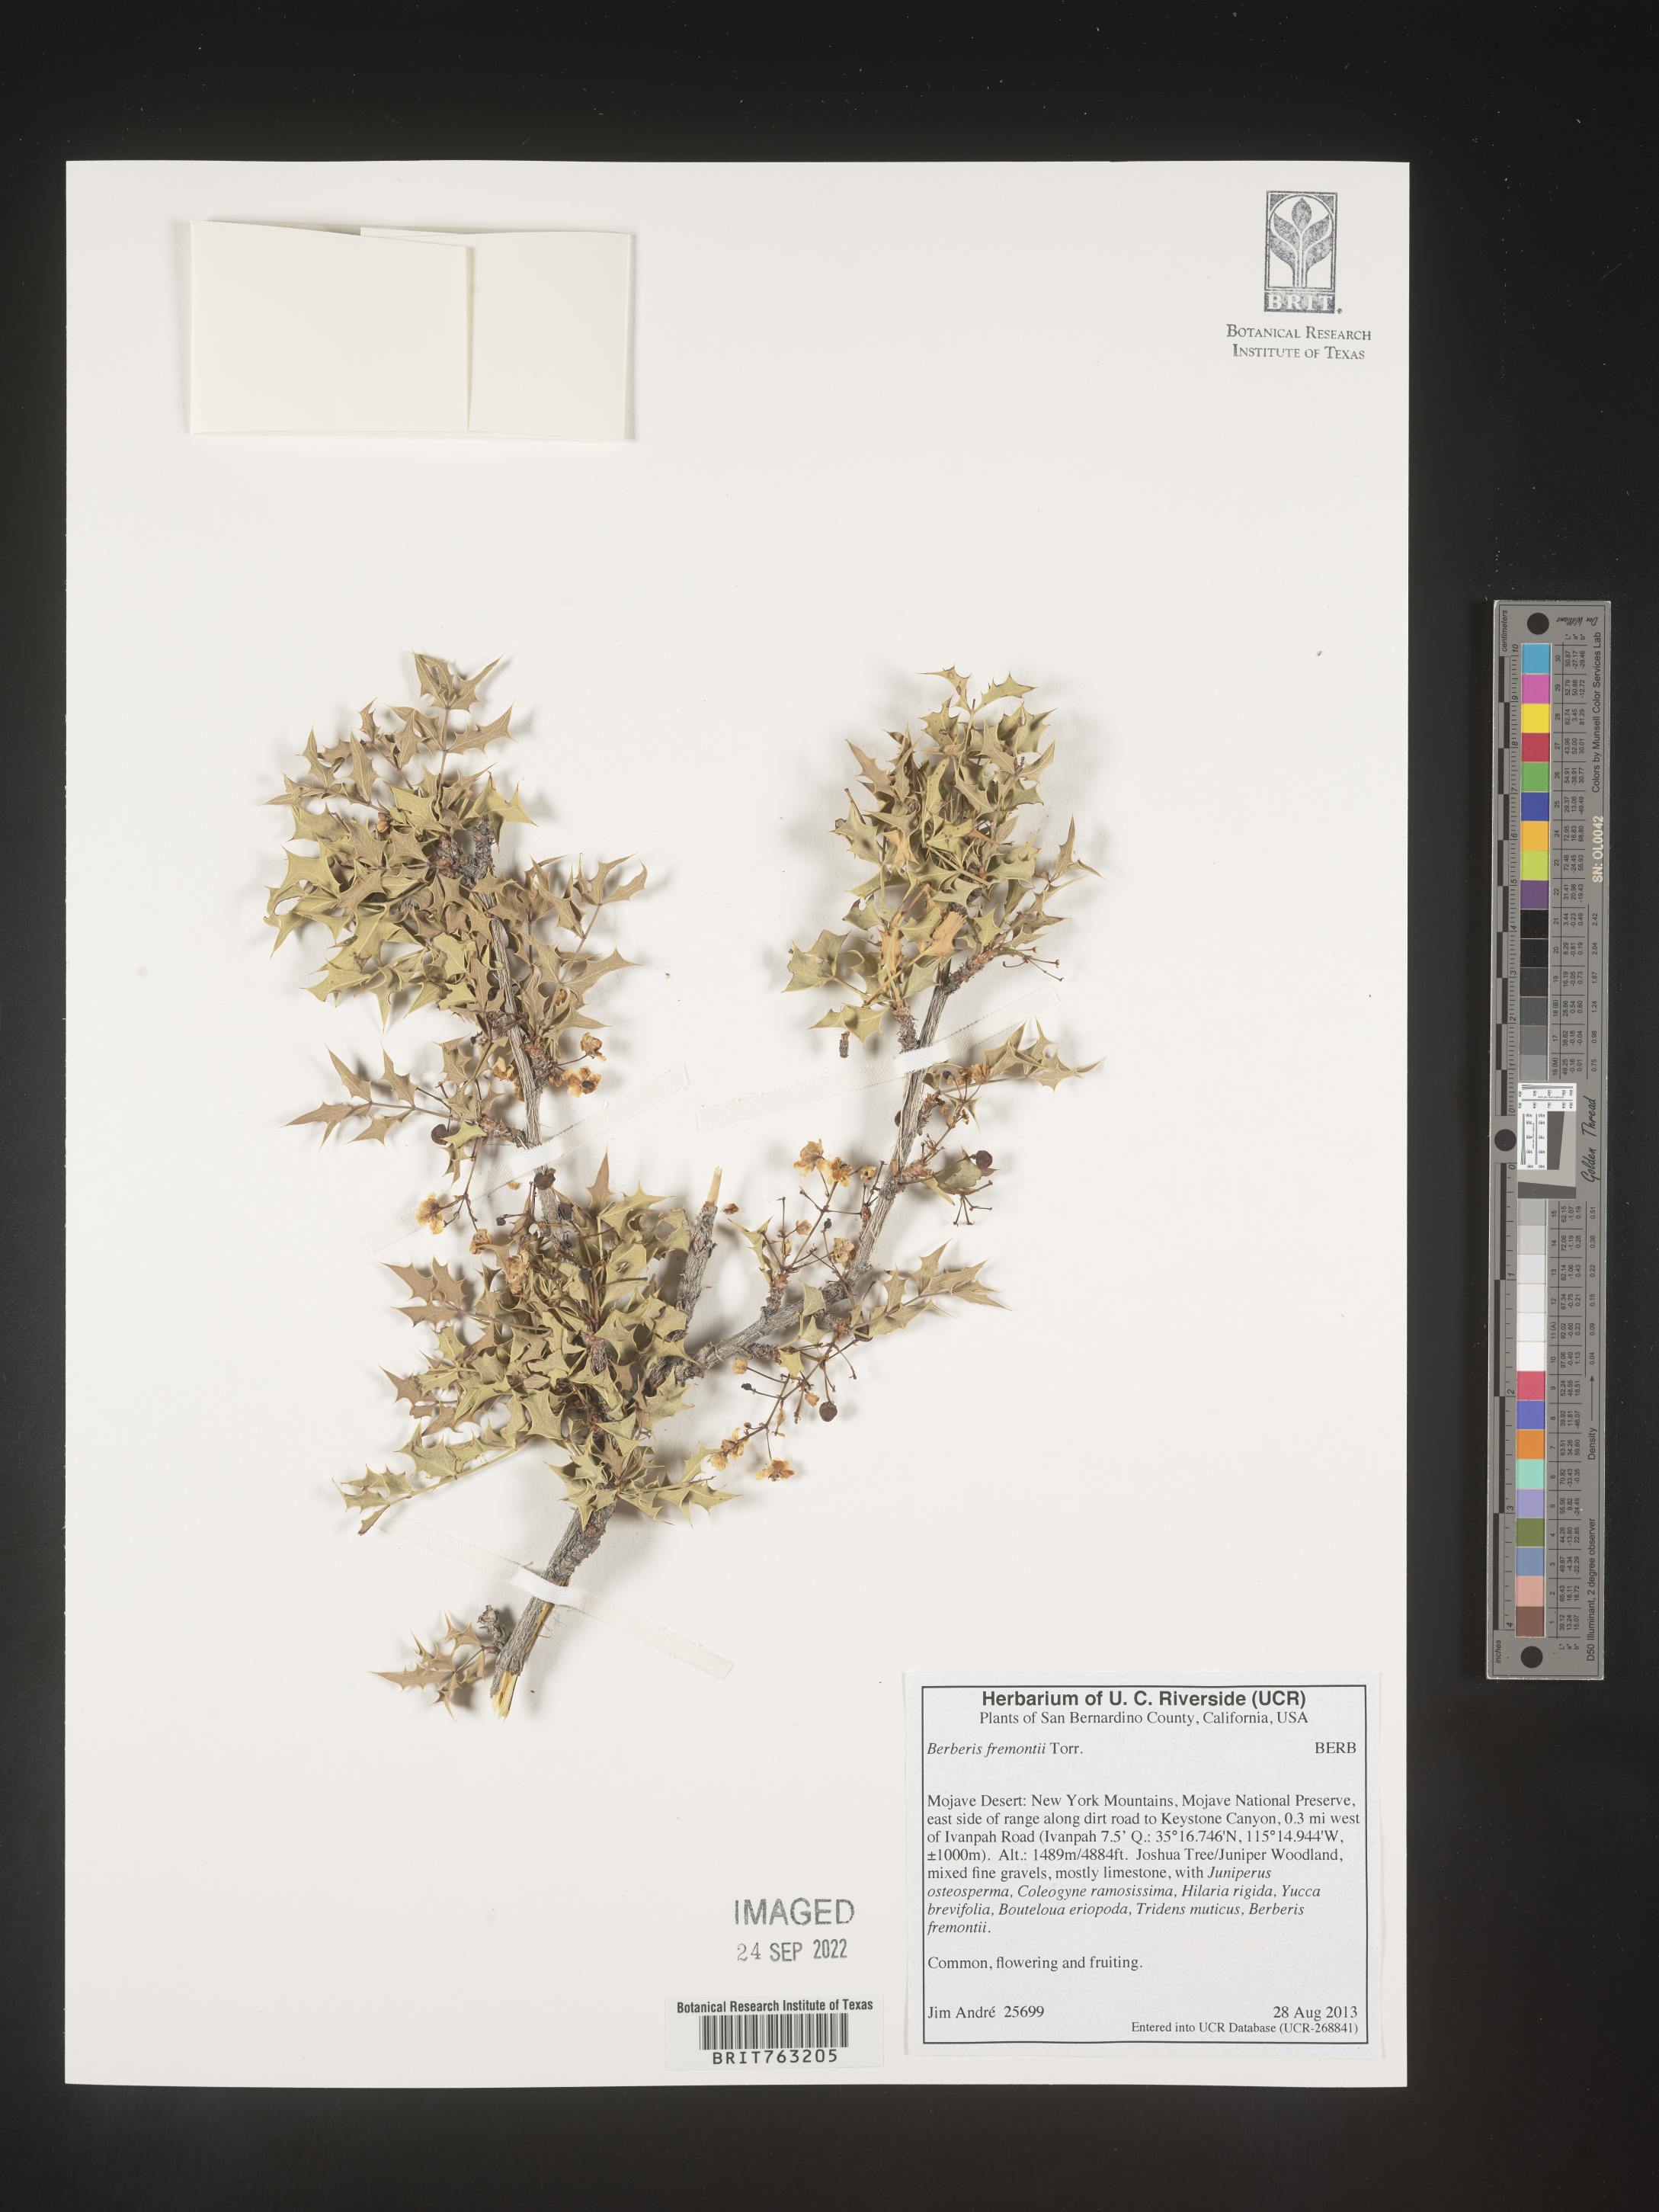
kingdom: Plantae
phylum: Tracheophyta
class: Magnoliopsida
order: Ranunculales
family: Berberidaceae
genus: Alloberberis
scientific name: Alloberberis fremontii
